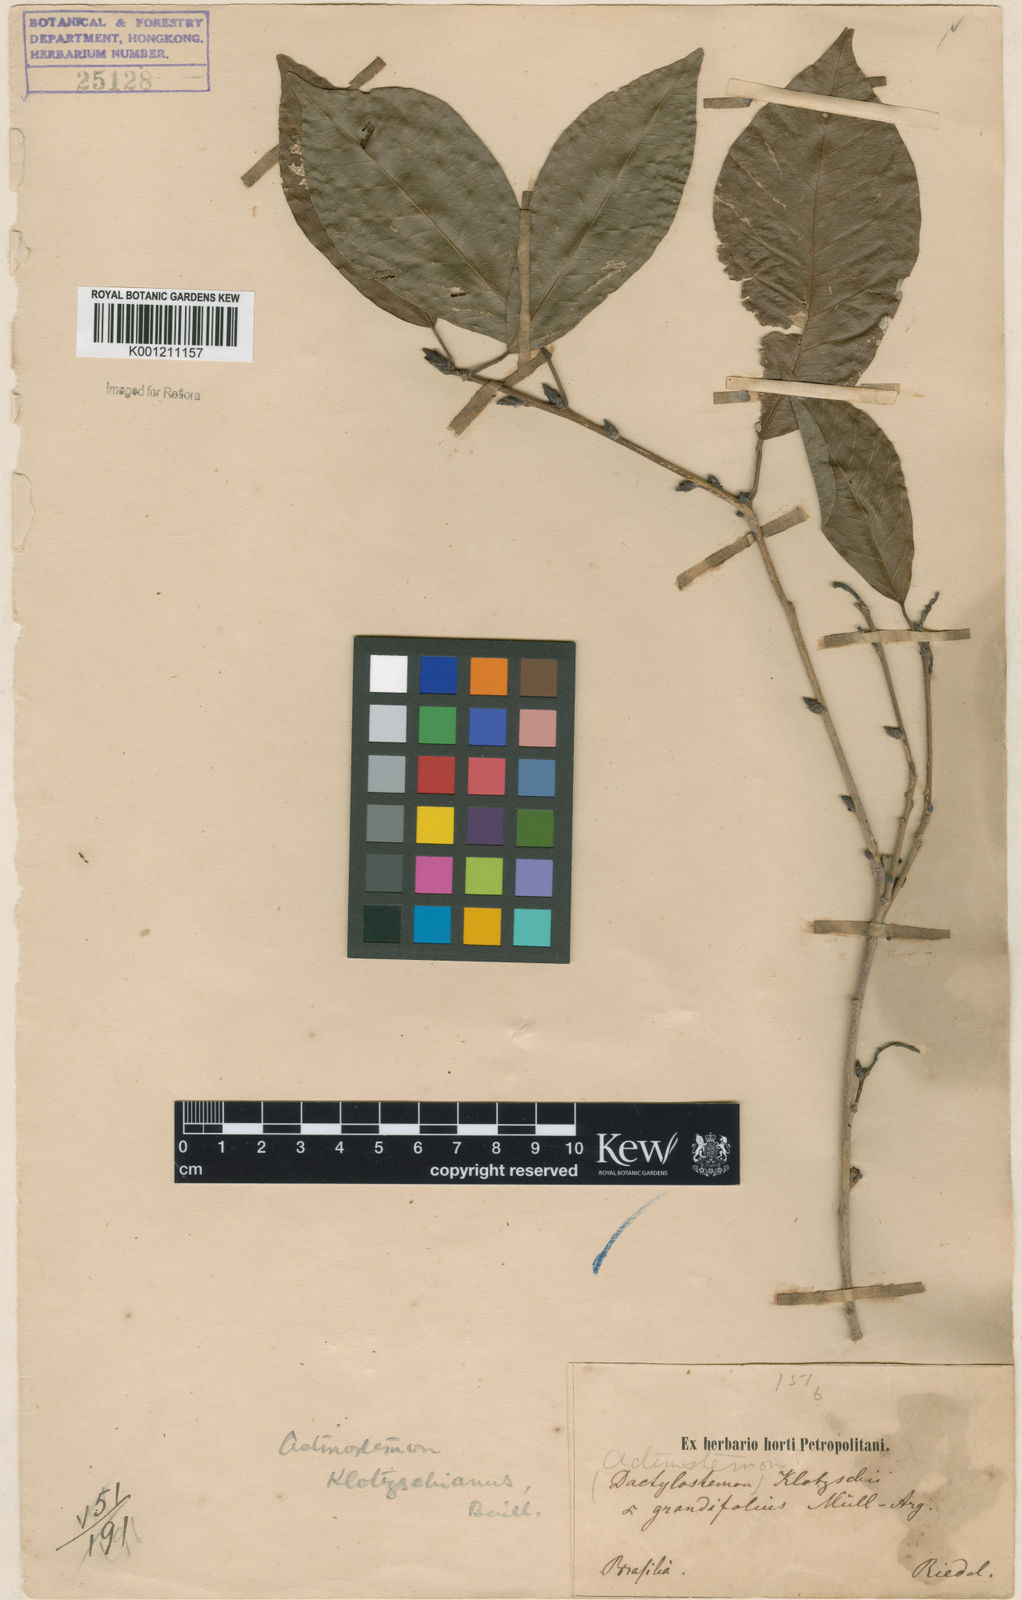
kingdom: Plantae
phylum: Tracheophyta
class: Magnoliopsida
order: Malpighiales
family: Euphorbiaceae
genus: Actinostemon
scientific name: Actinostemon klotzschii
